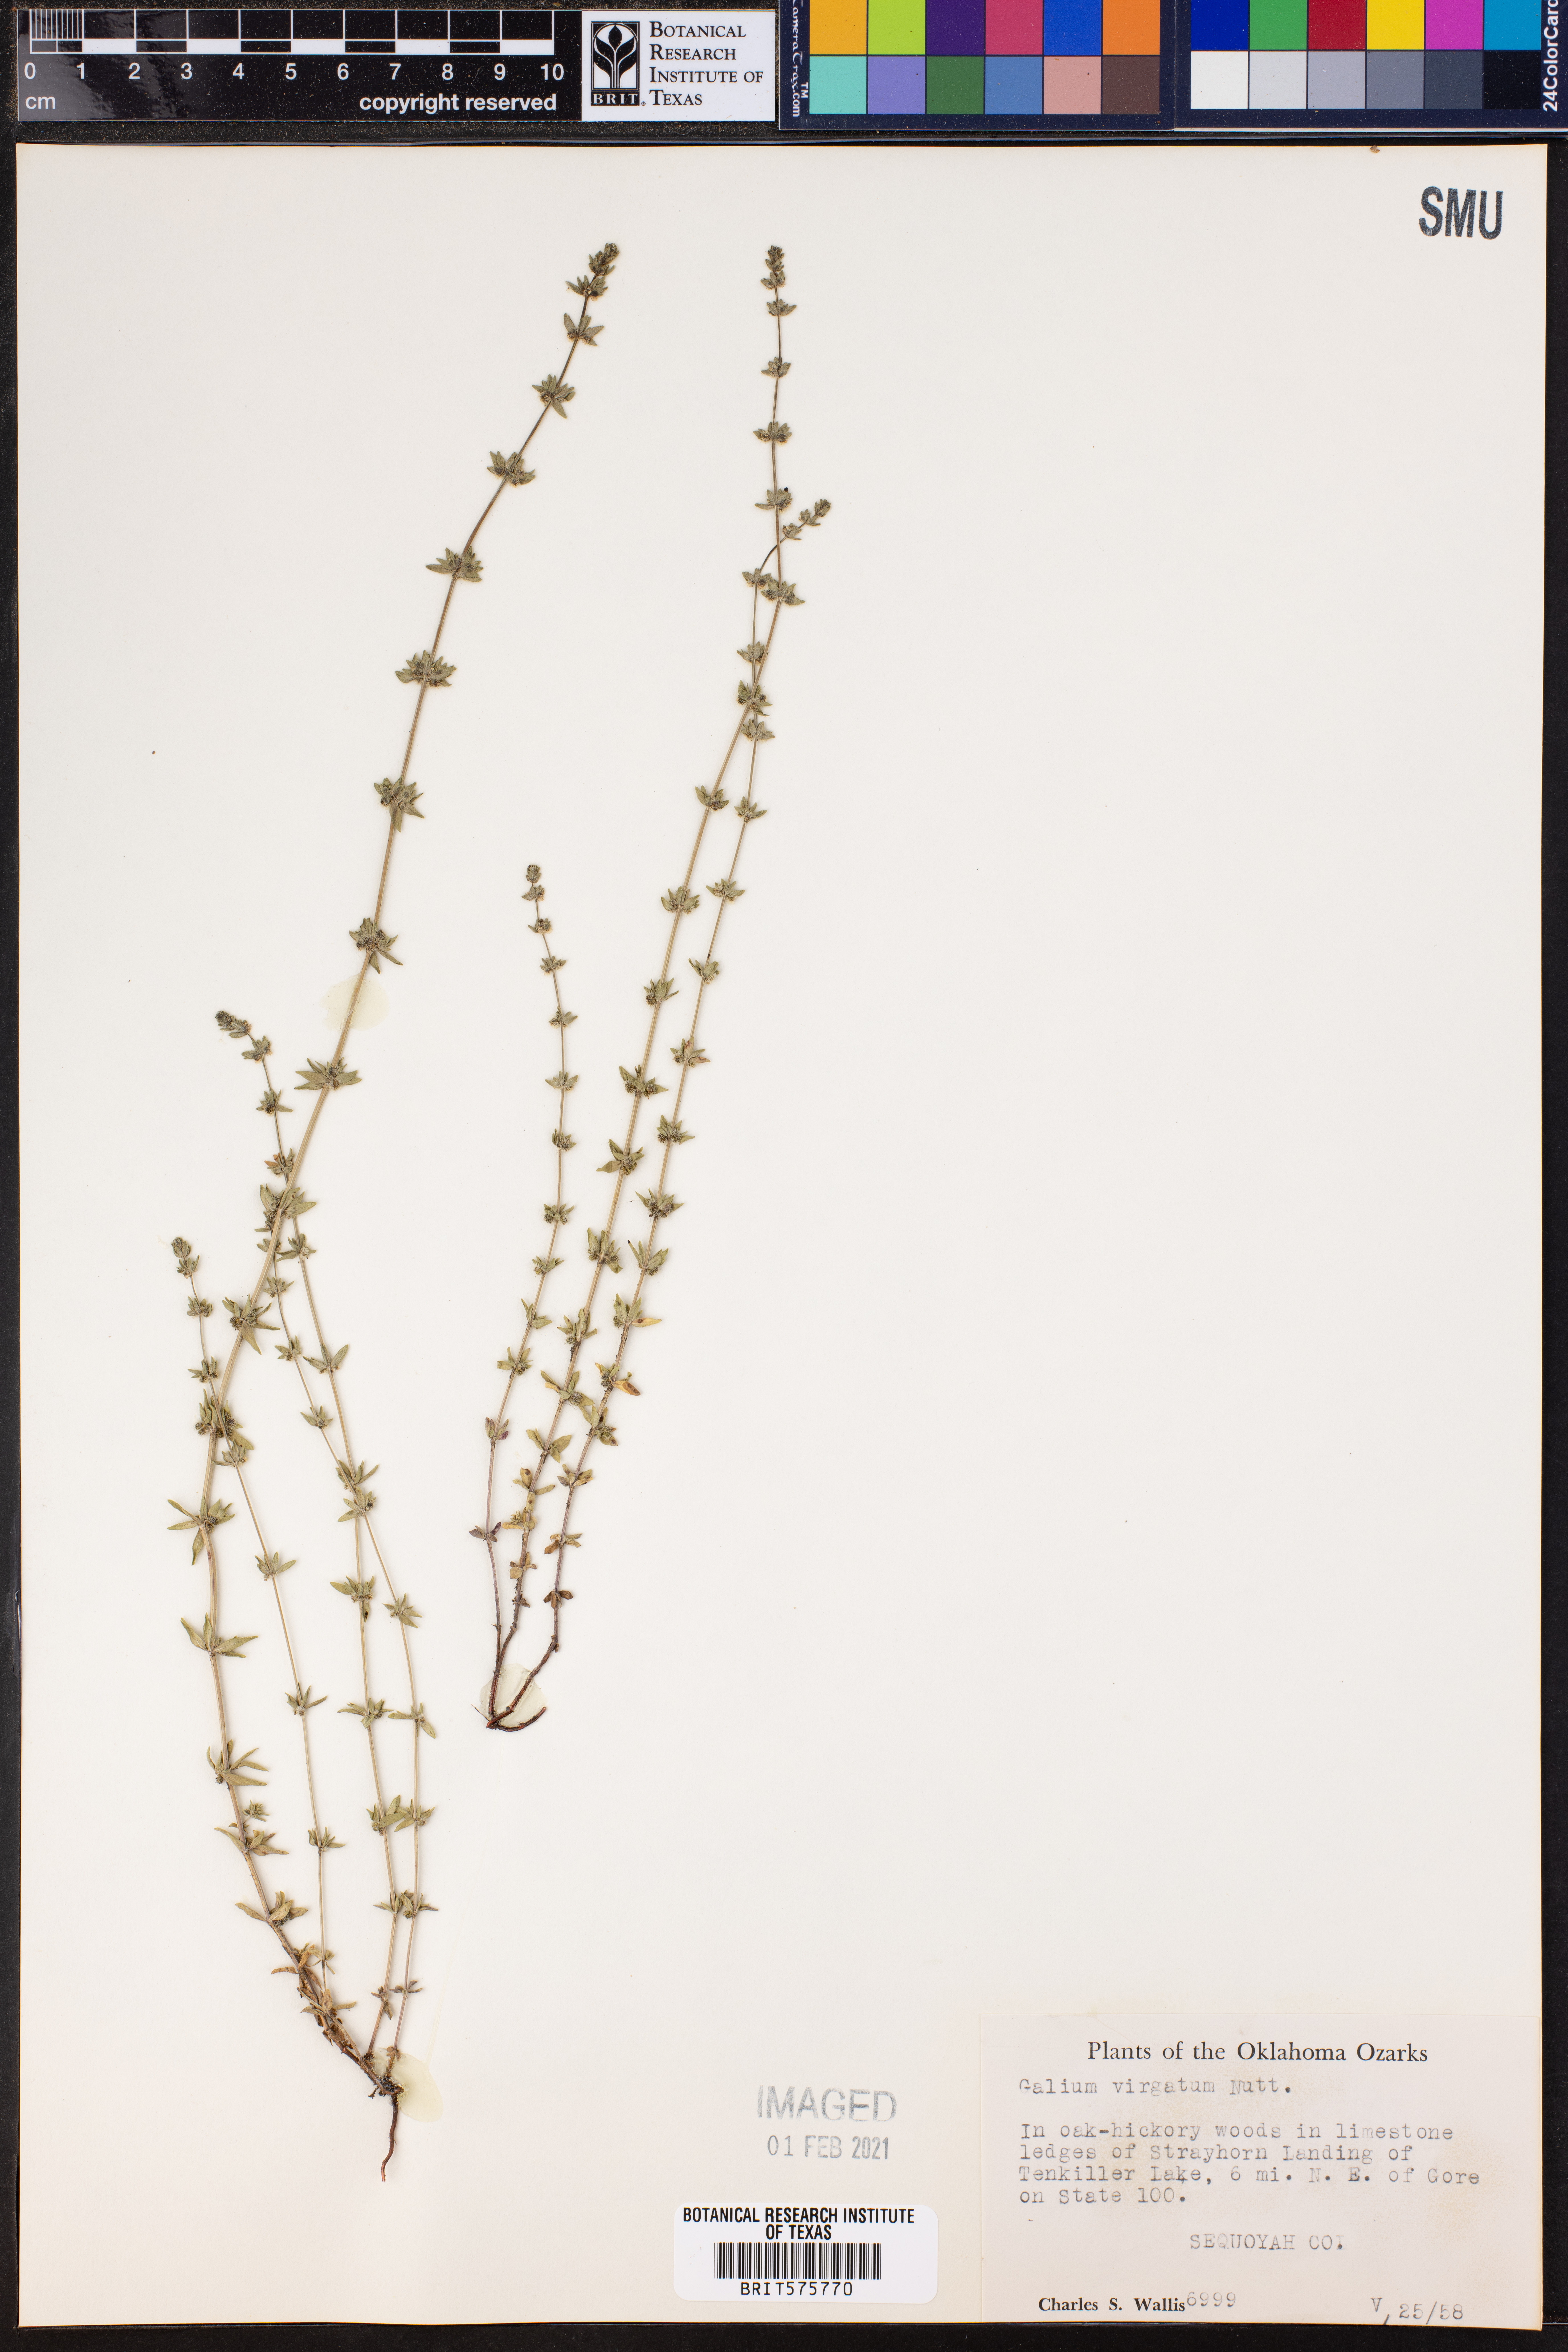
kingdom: Plantae
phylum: Tracheophyta
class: Magnoliopsida
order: Gentianales
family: Rubiaceae
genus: Galium
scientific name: Galium virgatum
